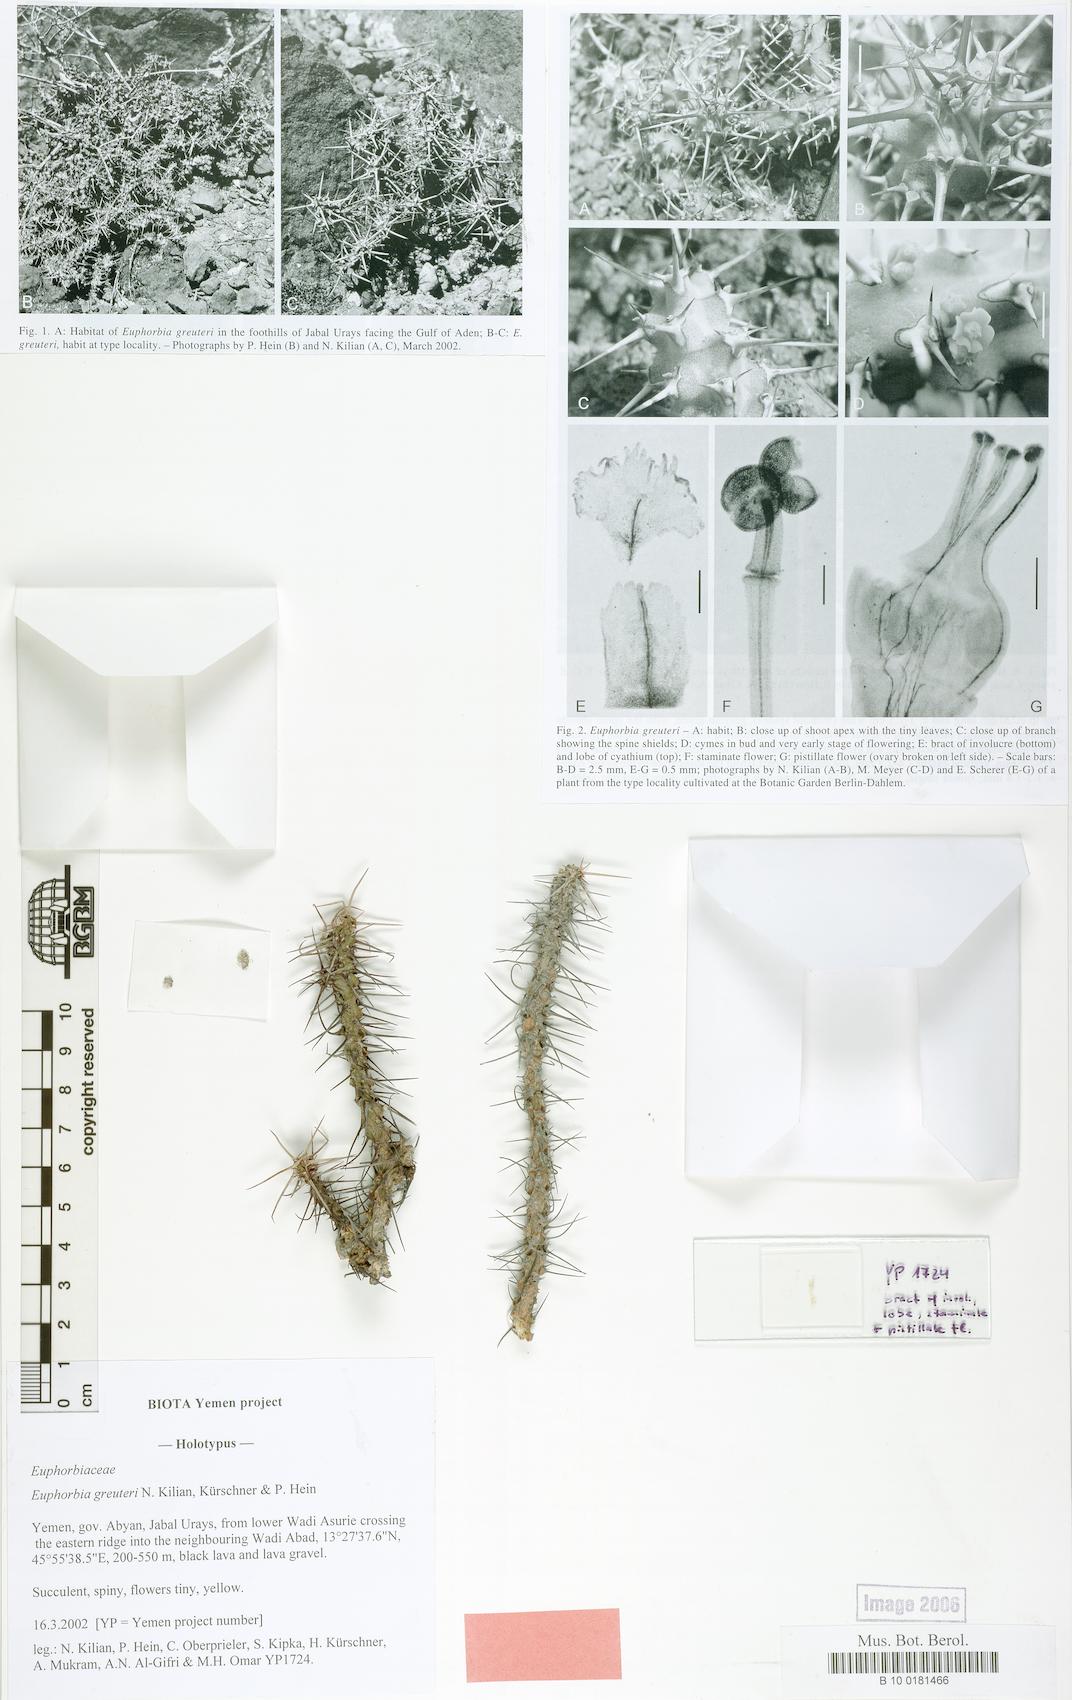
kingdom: Plantae
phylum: Tracheophyta
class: Magnoliopsida
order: Malpighiales
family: Euphorbiaceae
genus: Euphorbia
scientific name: Euphorbia greuteri
